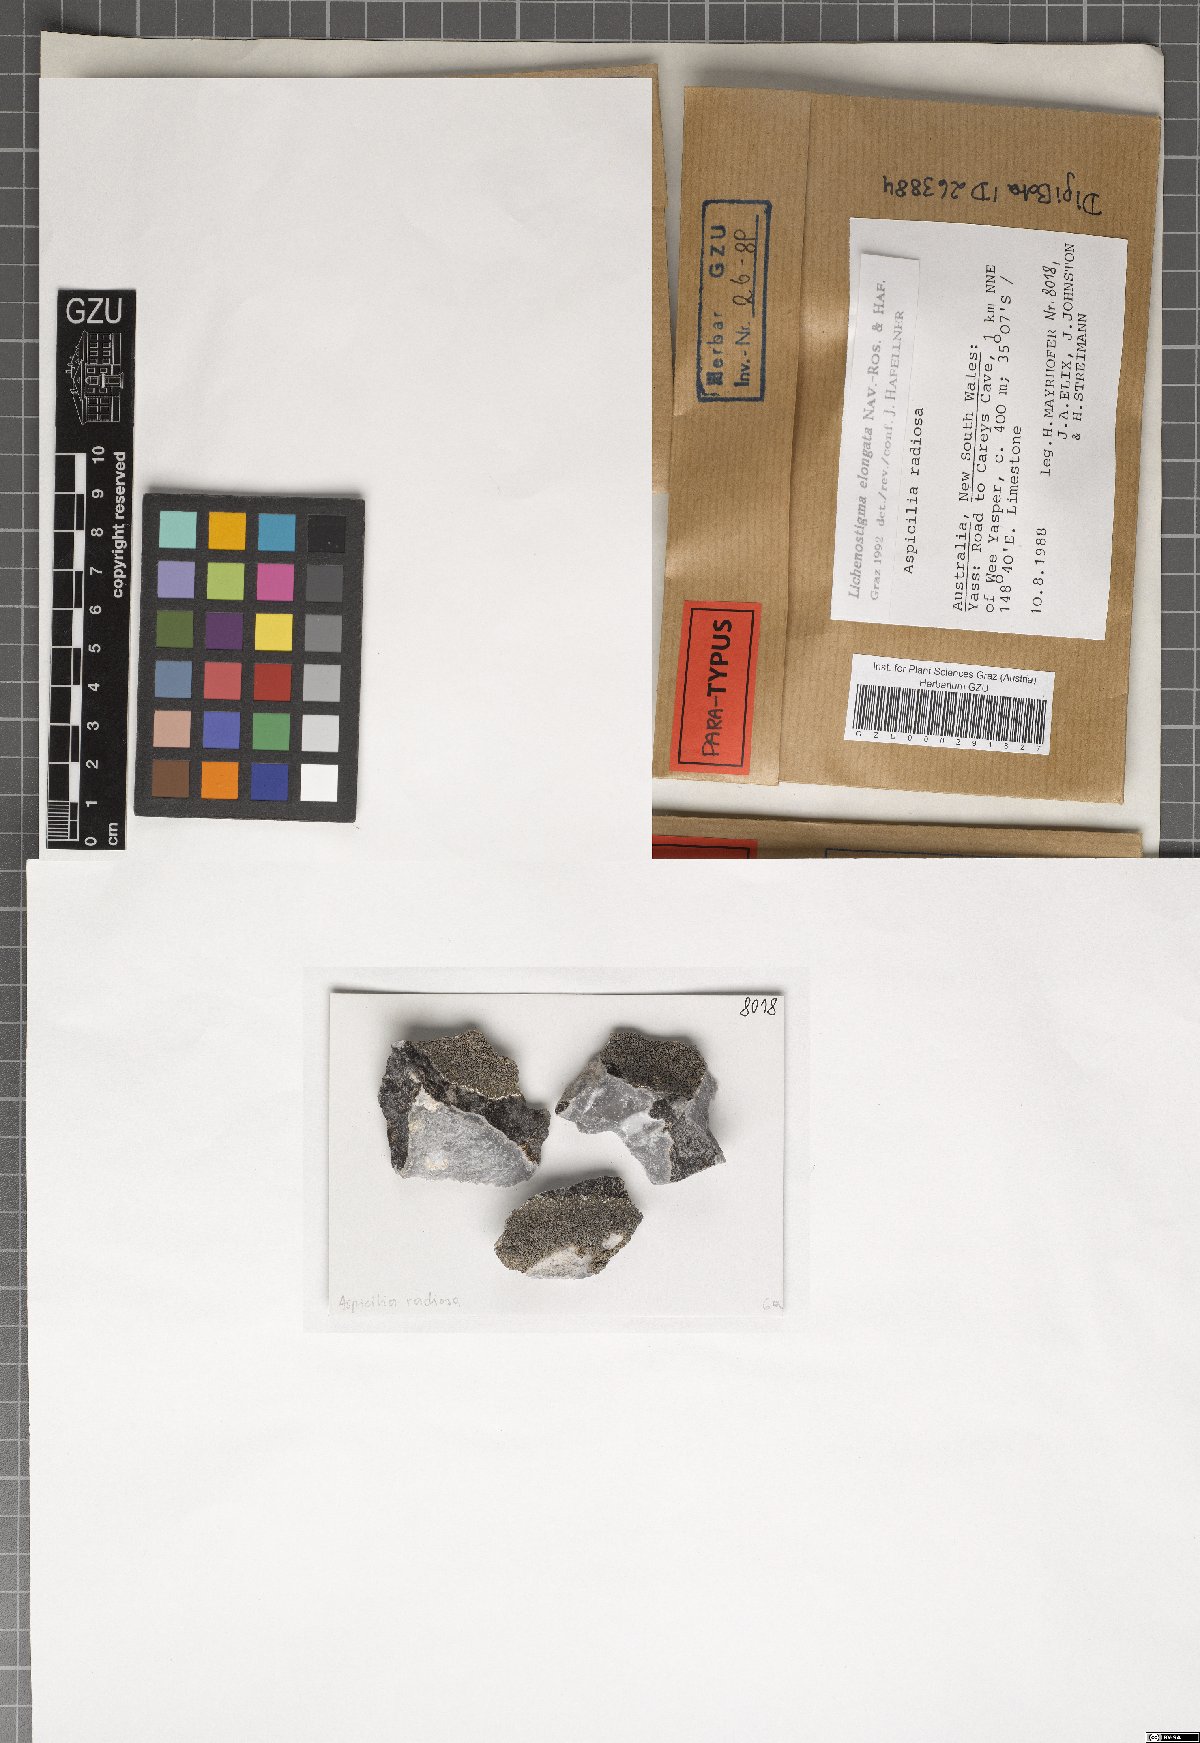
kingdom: Fungi
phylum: Ascomycota
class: Arthoniomycetes
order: Lichenostigmatales
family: Phaeococcomycetaceae
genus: Lichenostigma
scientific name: Lichenostigma elongatum
